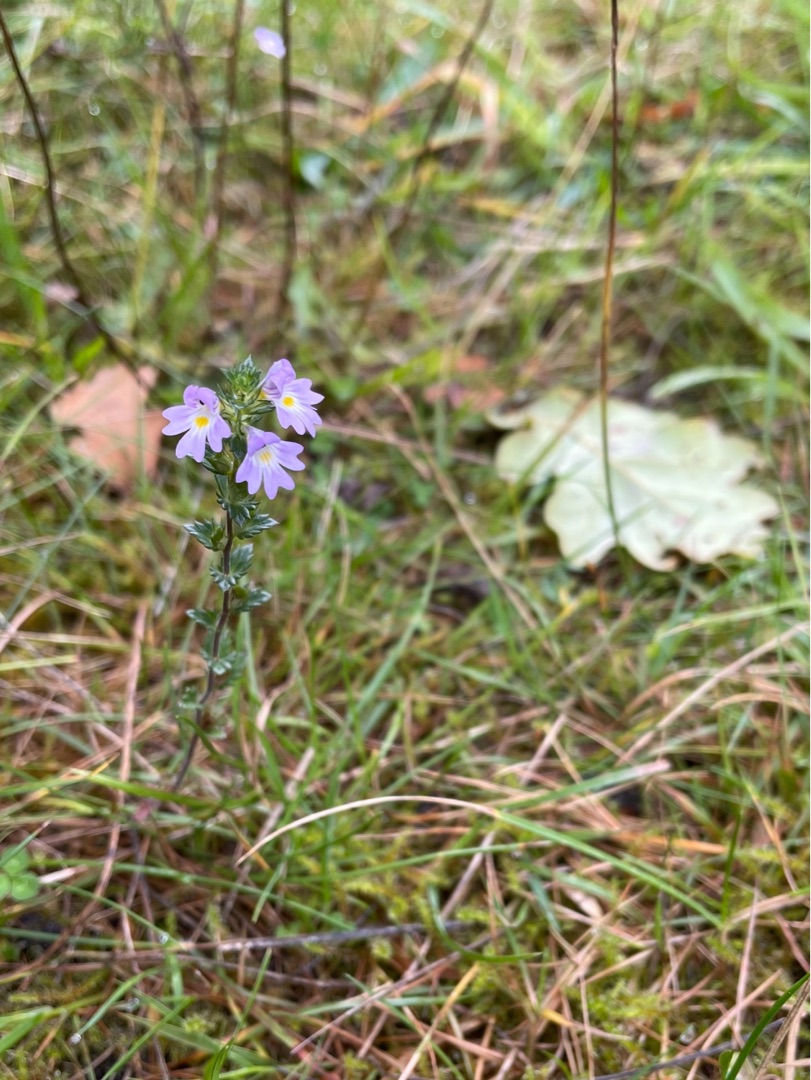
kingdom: Plantae
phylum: Tracheophyta
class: Magnoliopsida
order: Lamiales
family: Orobanchaceae
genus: Euphrasia
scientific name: Euphrasia nemorosa
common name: Kort øjentrøst
